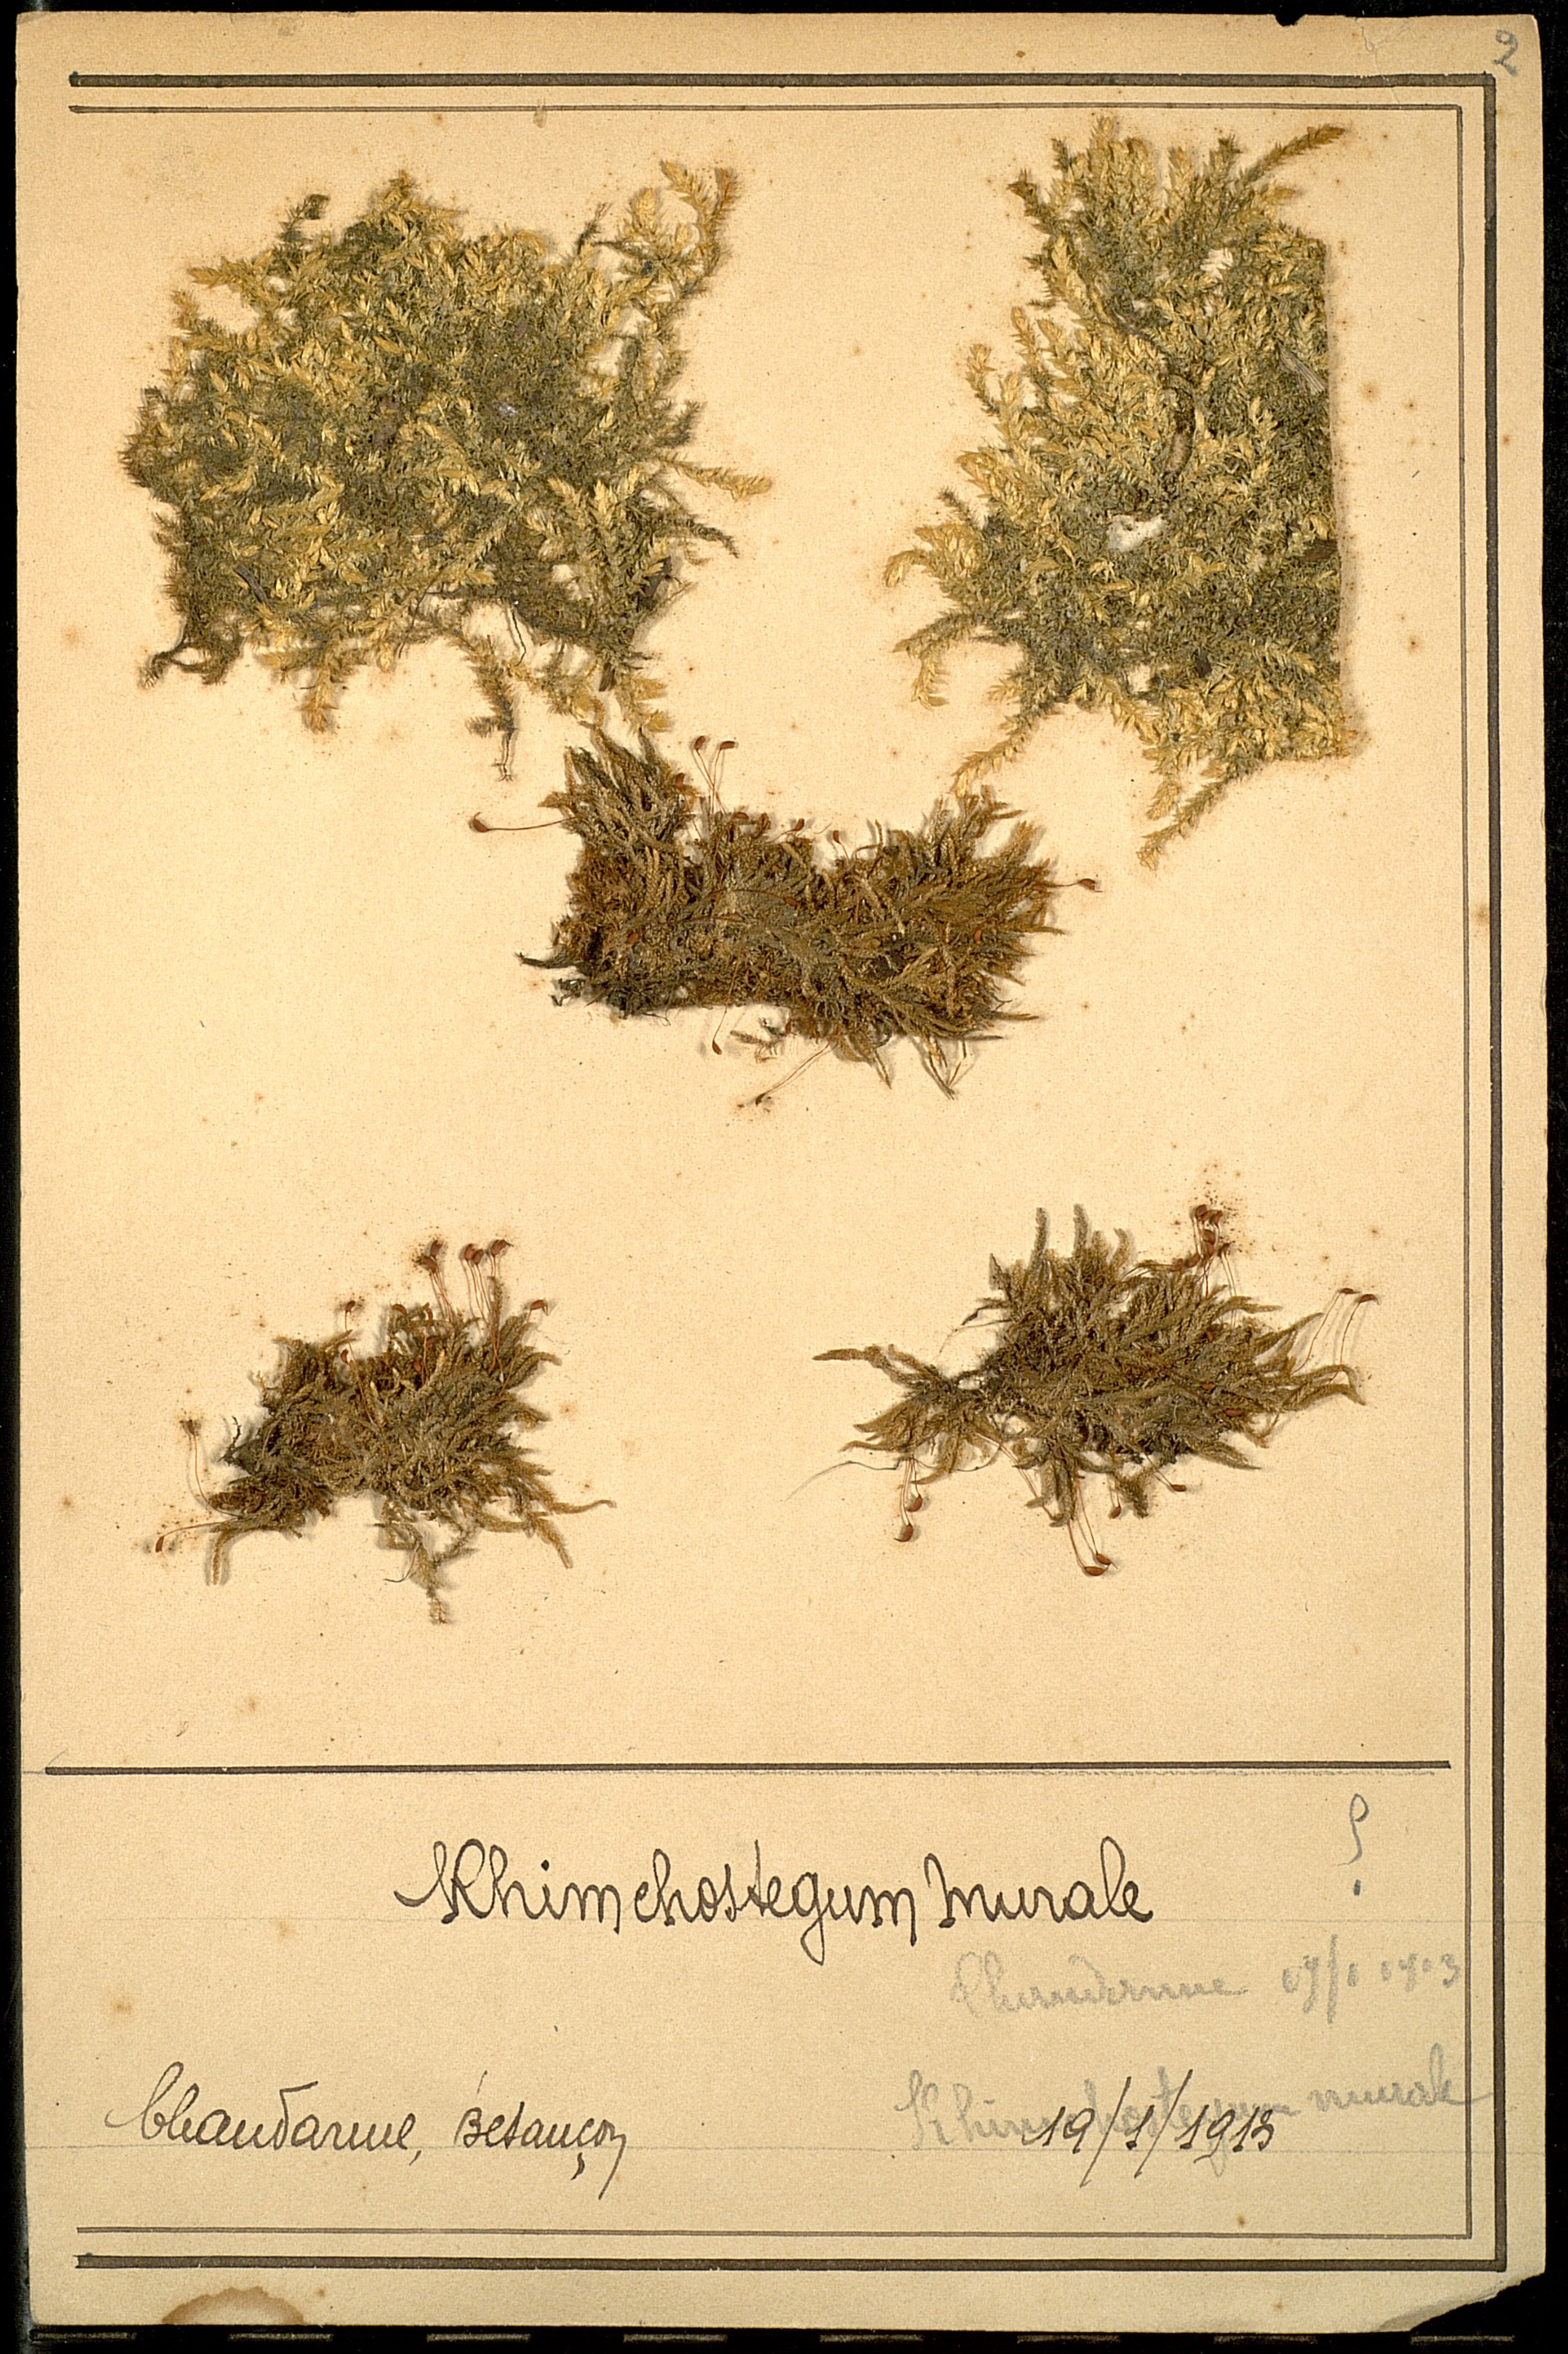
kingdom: Plantae
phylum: Bryophyta
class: Bryopsida
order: Hypnales
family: Brachytheciaceae
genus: Rhynchostegium
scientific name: Rhynchostegium murale
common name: Wall feather-moss
